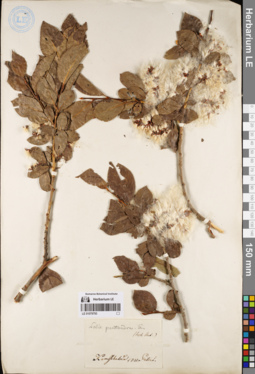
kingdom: Plantae
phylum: Tracheophyta
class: Magnoliopsida
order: Malpighiales
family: Salicaceae
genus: Salix
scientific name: Salix pseudopentandra
